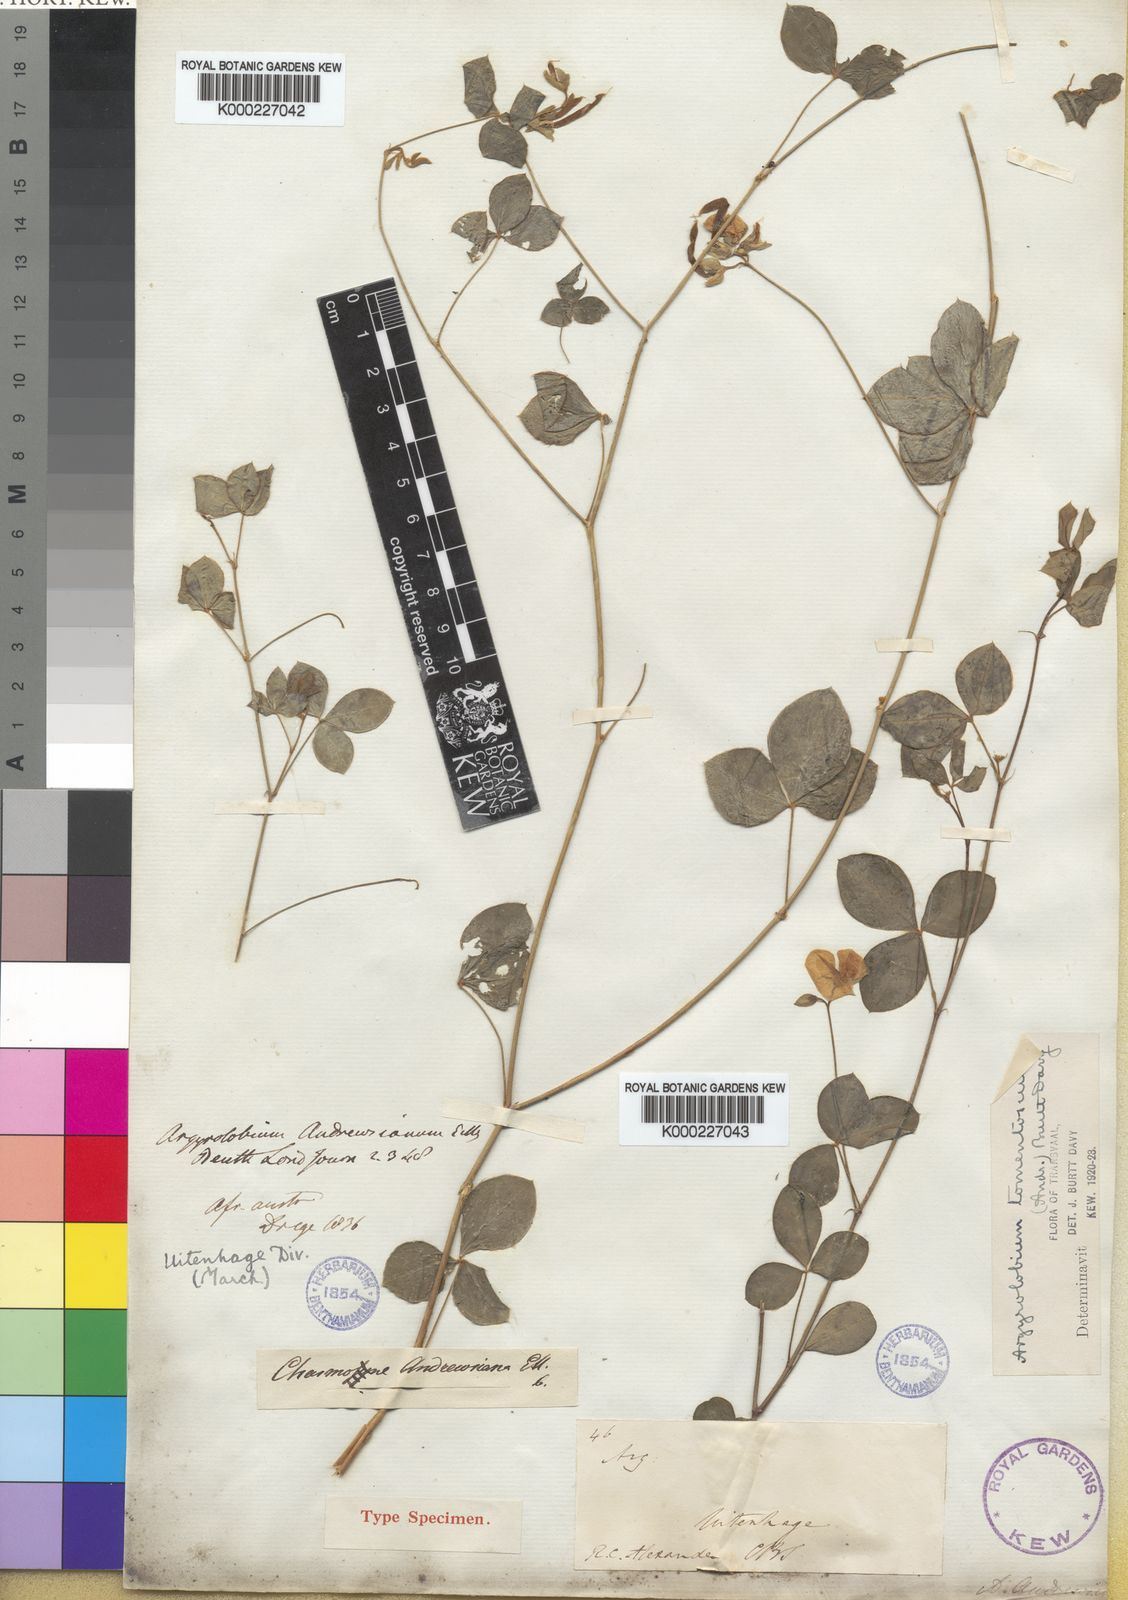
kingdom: Plantae
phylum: Tracheophyta
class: Magnoliopsida
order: Fabales
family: Fabaceae
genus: Argyrolobium
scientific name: Argyrolobium tomentosum
